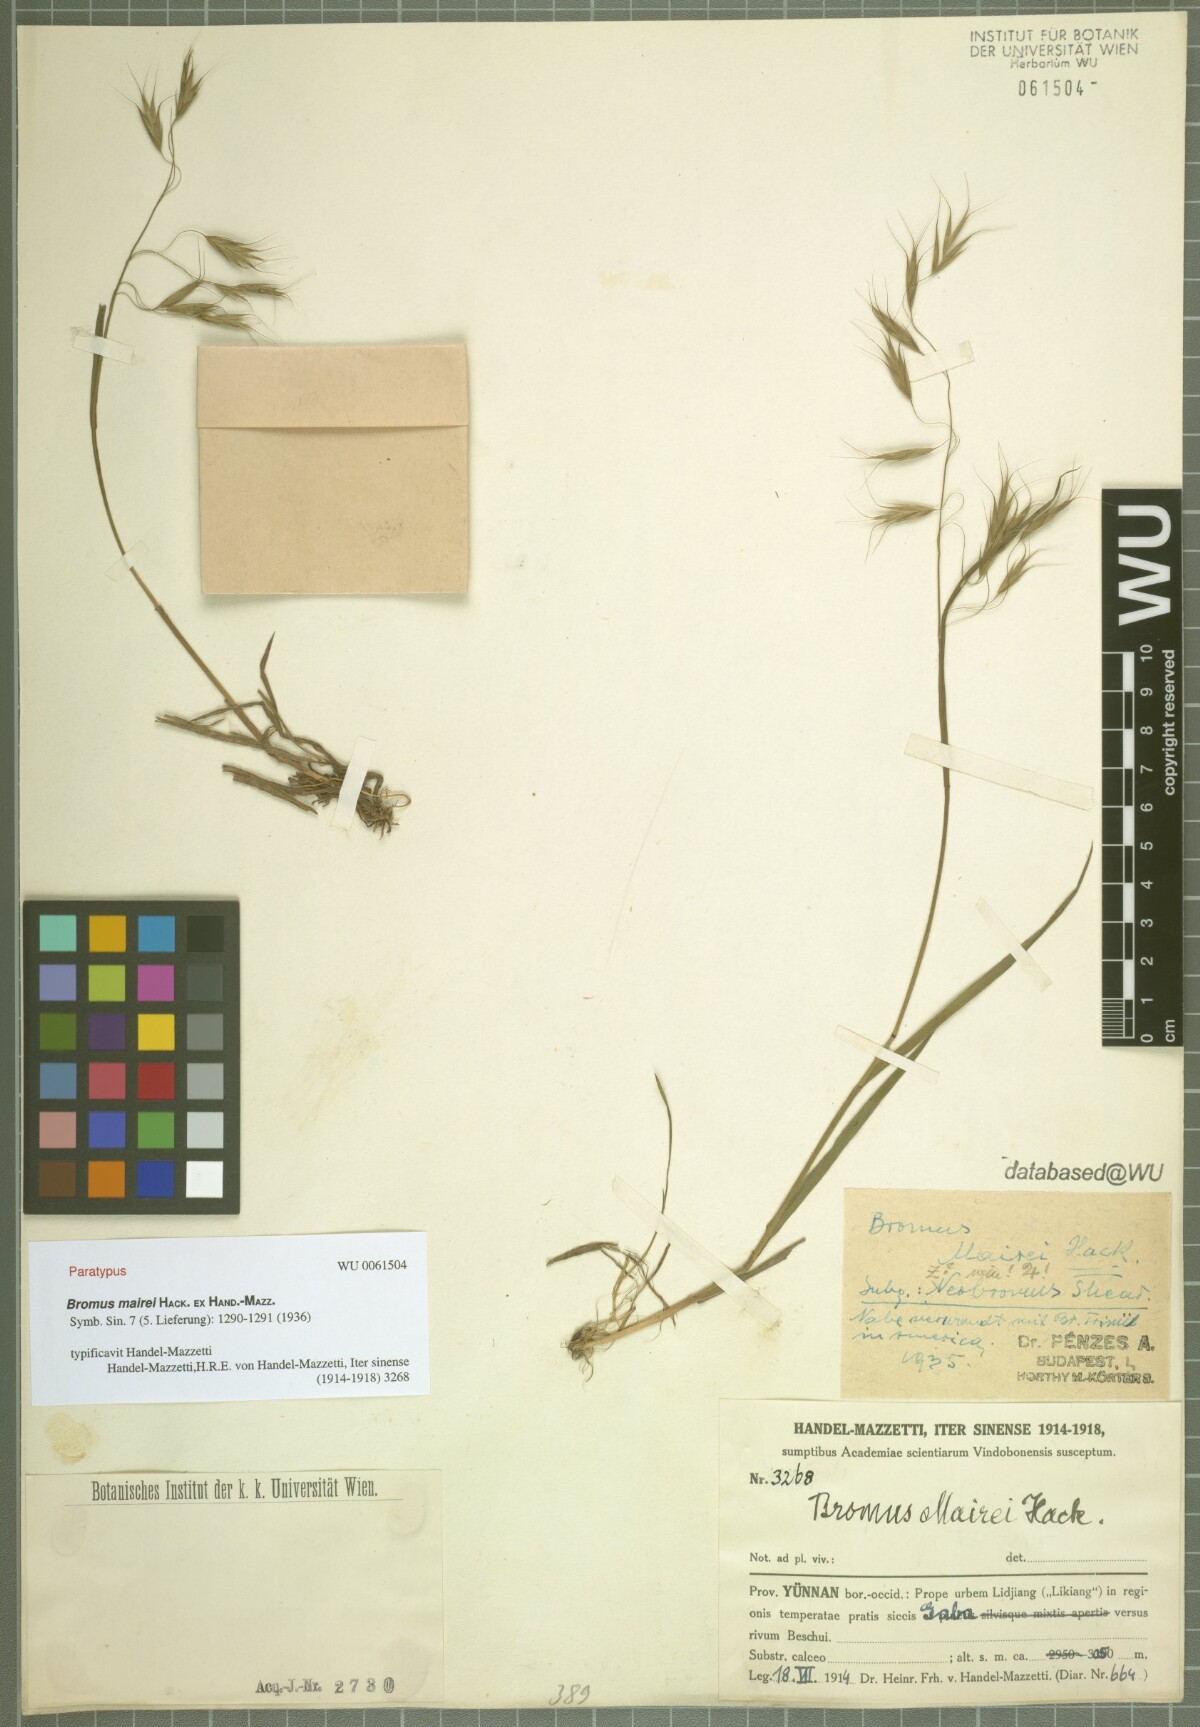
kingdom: Plantae
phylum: Tracheophyta
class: Liliopsida
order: Poales
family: Poaceae
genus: Bromus
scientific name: Bromus mairei
